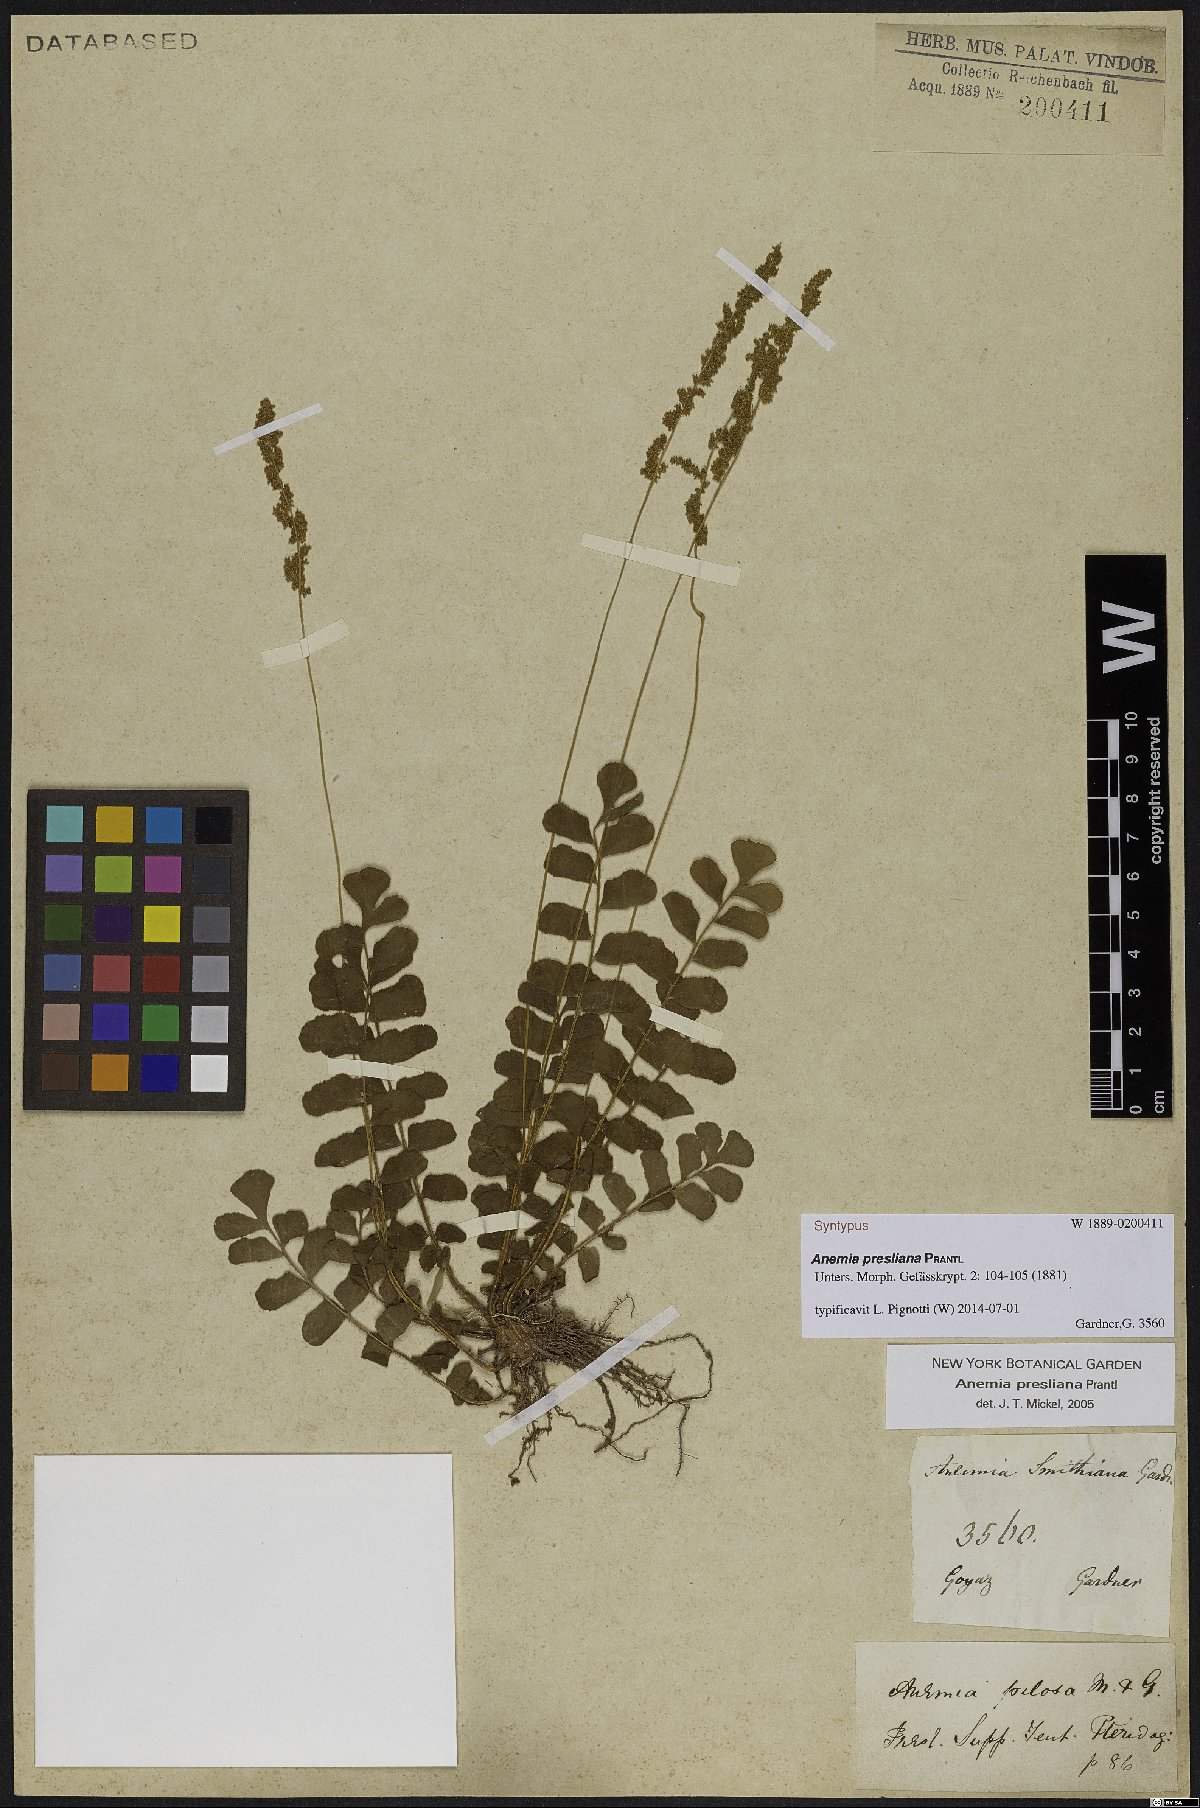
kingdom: Plantae
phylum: Tracheophyta
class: Polypodiopsida
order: Schizaeales
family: Anemiaceae
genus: Anemia
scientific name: Anemia presliana
